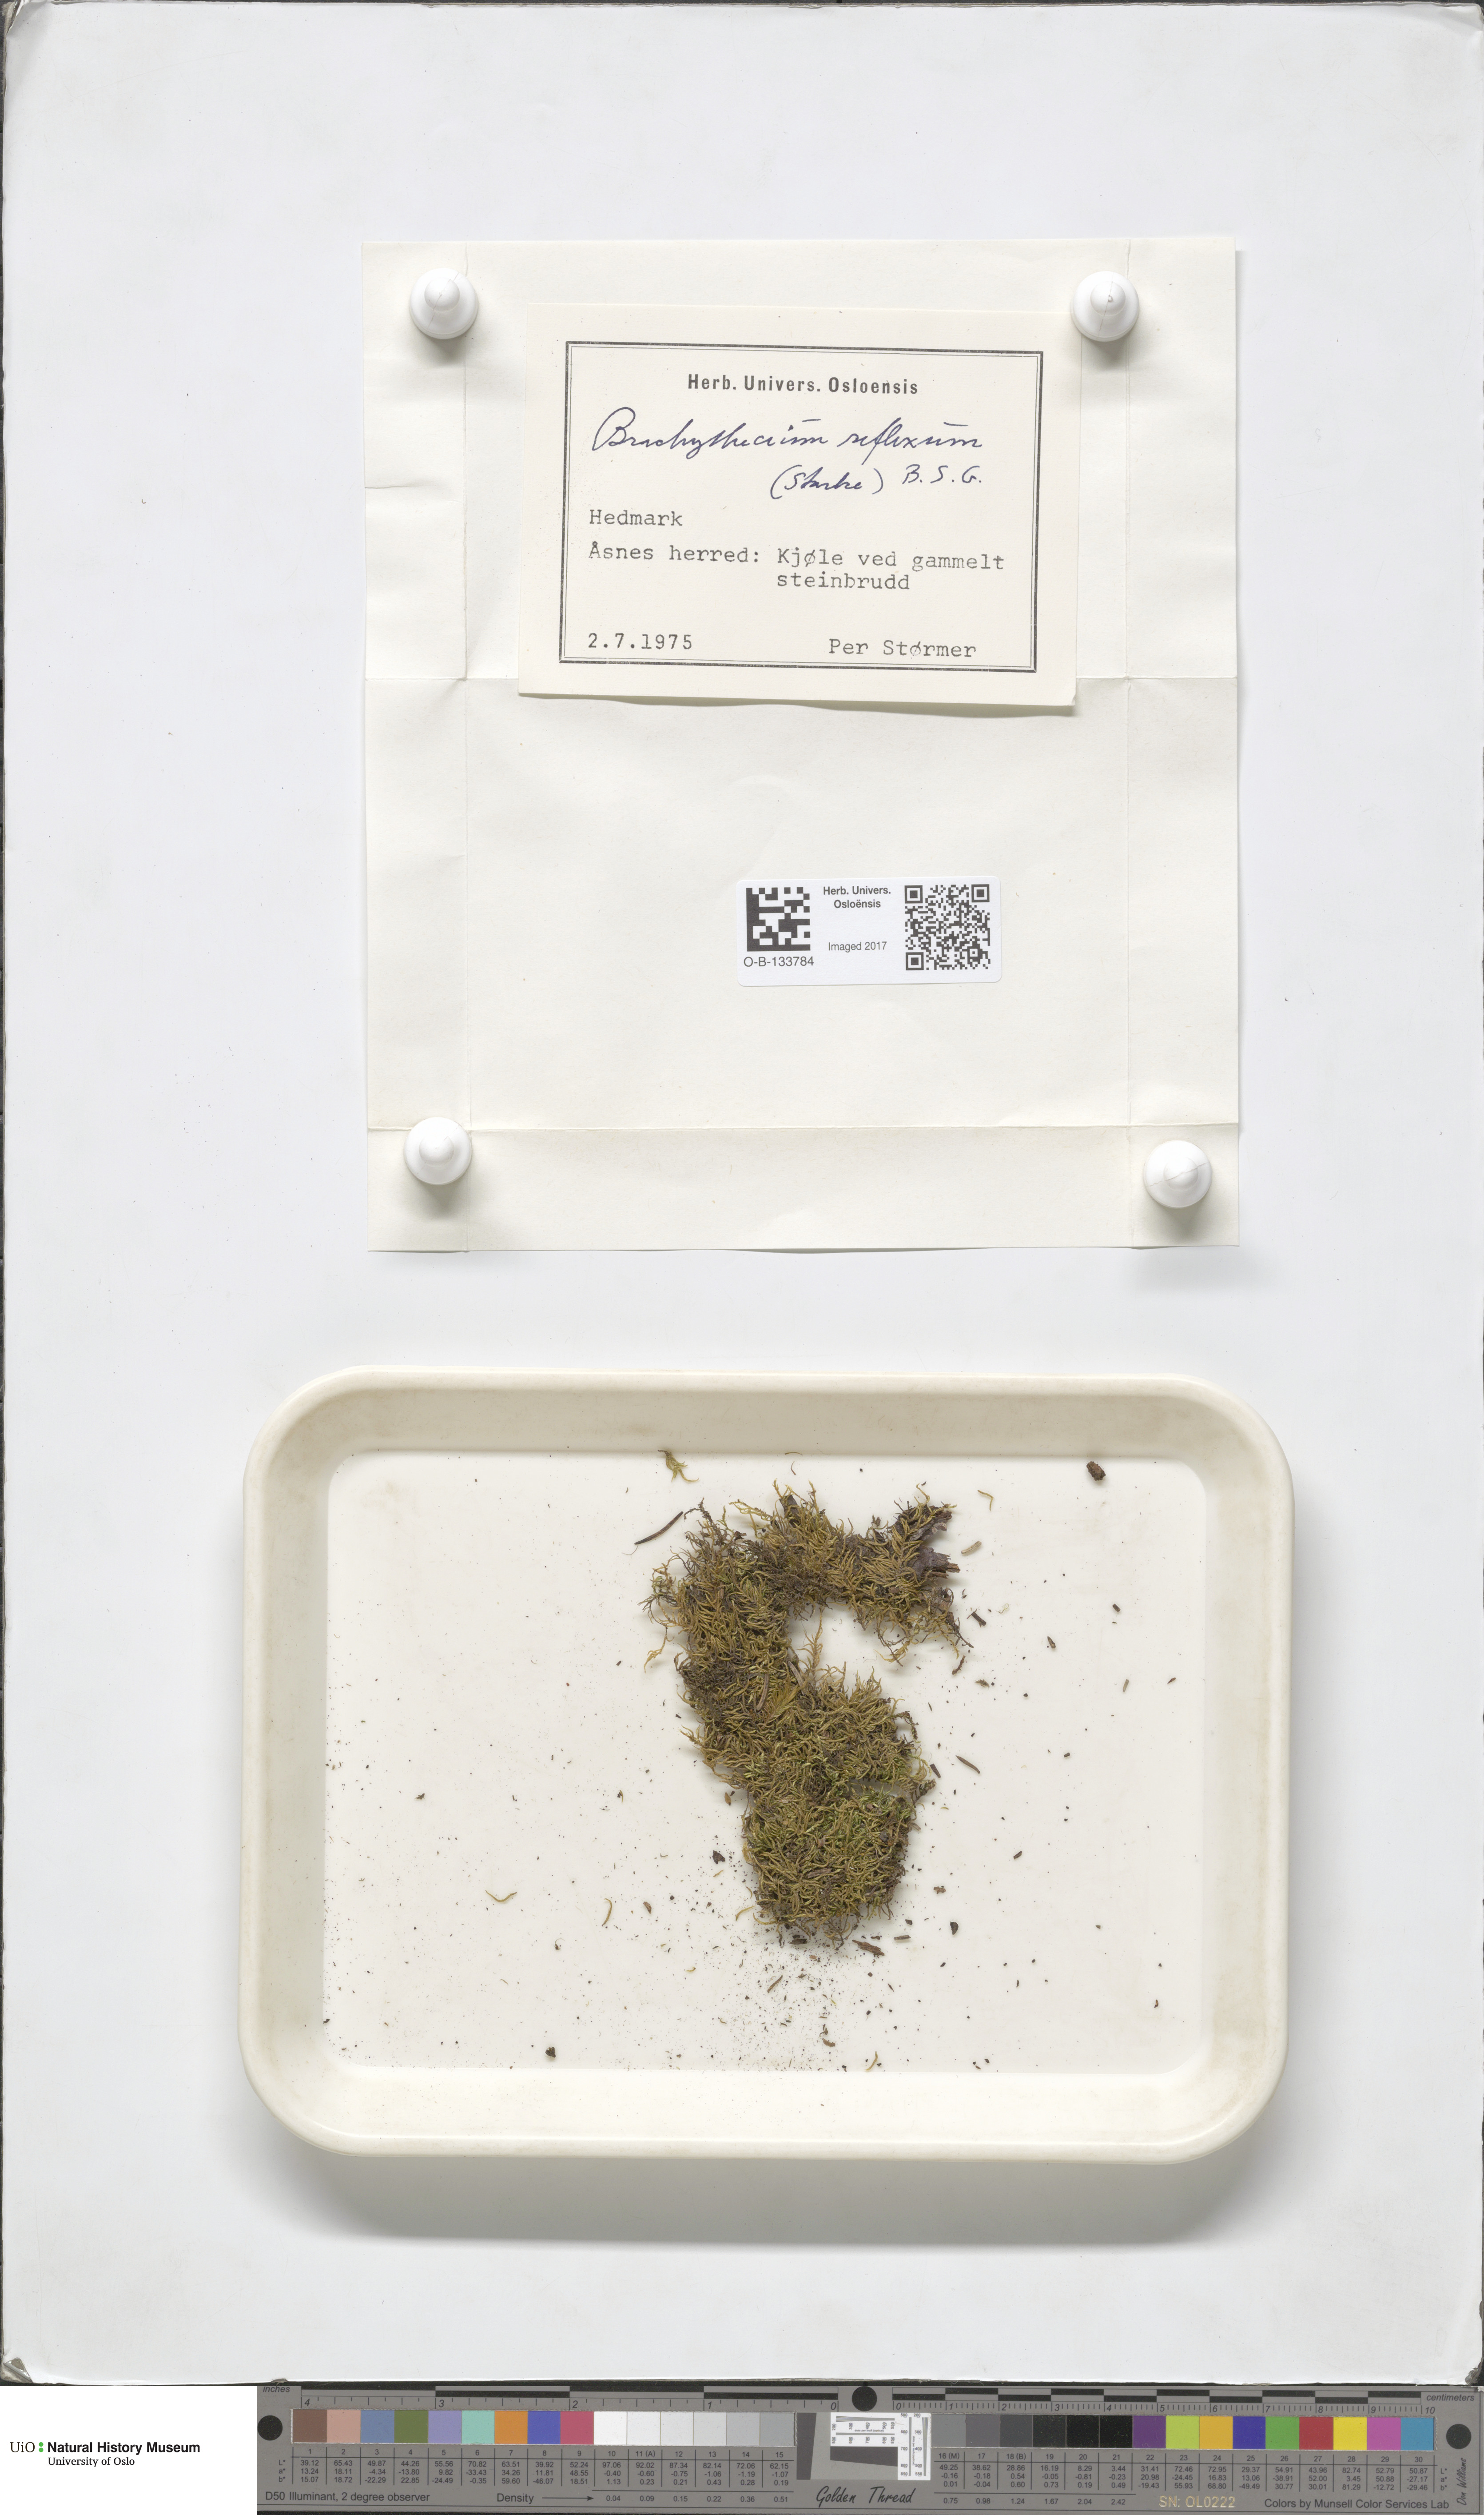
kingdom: Plantae
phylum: Bryophyta
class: Bryopsida
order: Hypnales
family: Brachytheciaceae
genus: Sciuro-hypnum
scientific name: Sciuro-hypnum reflexum
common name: Reflexed feather-moss
